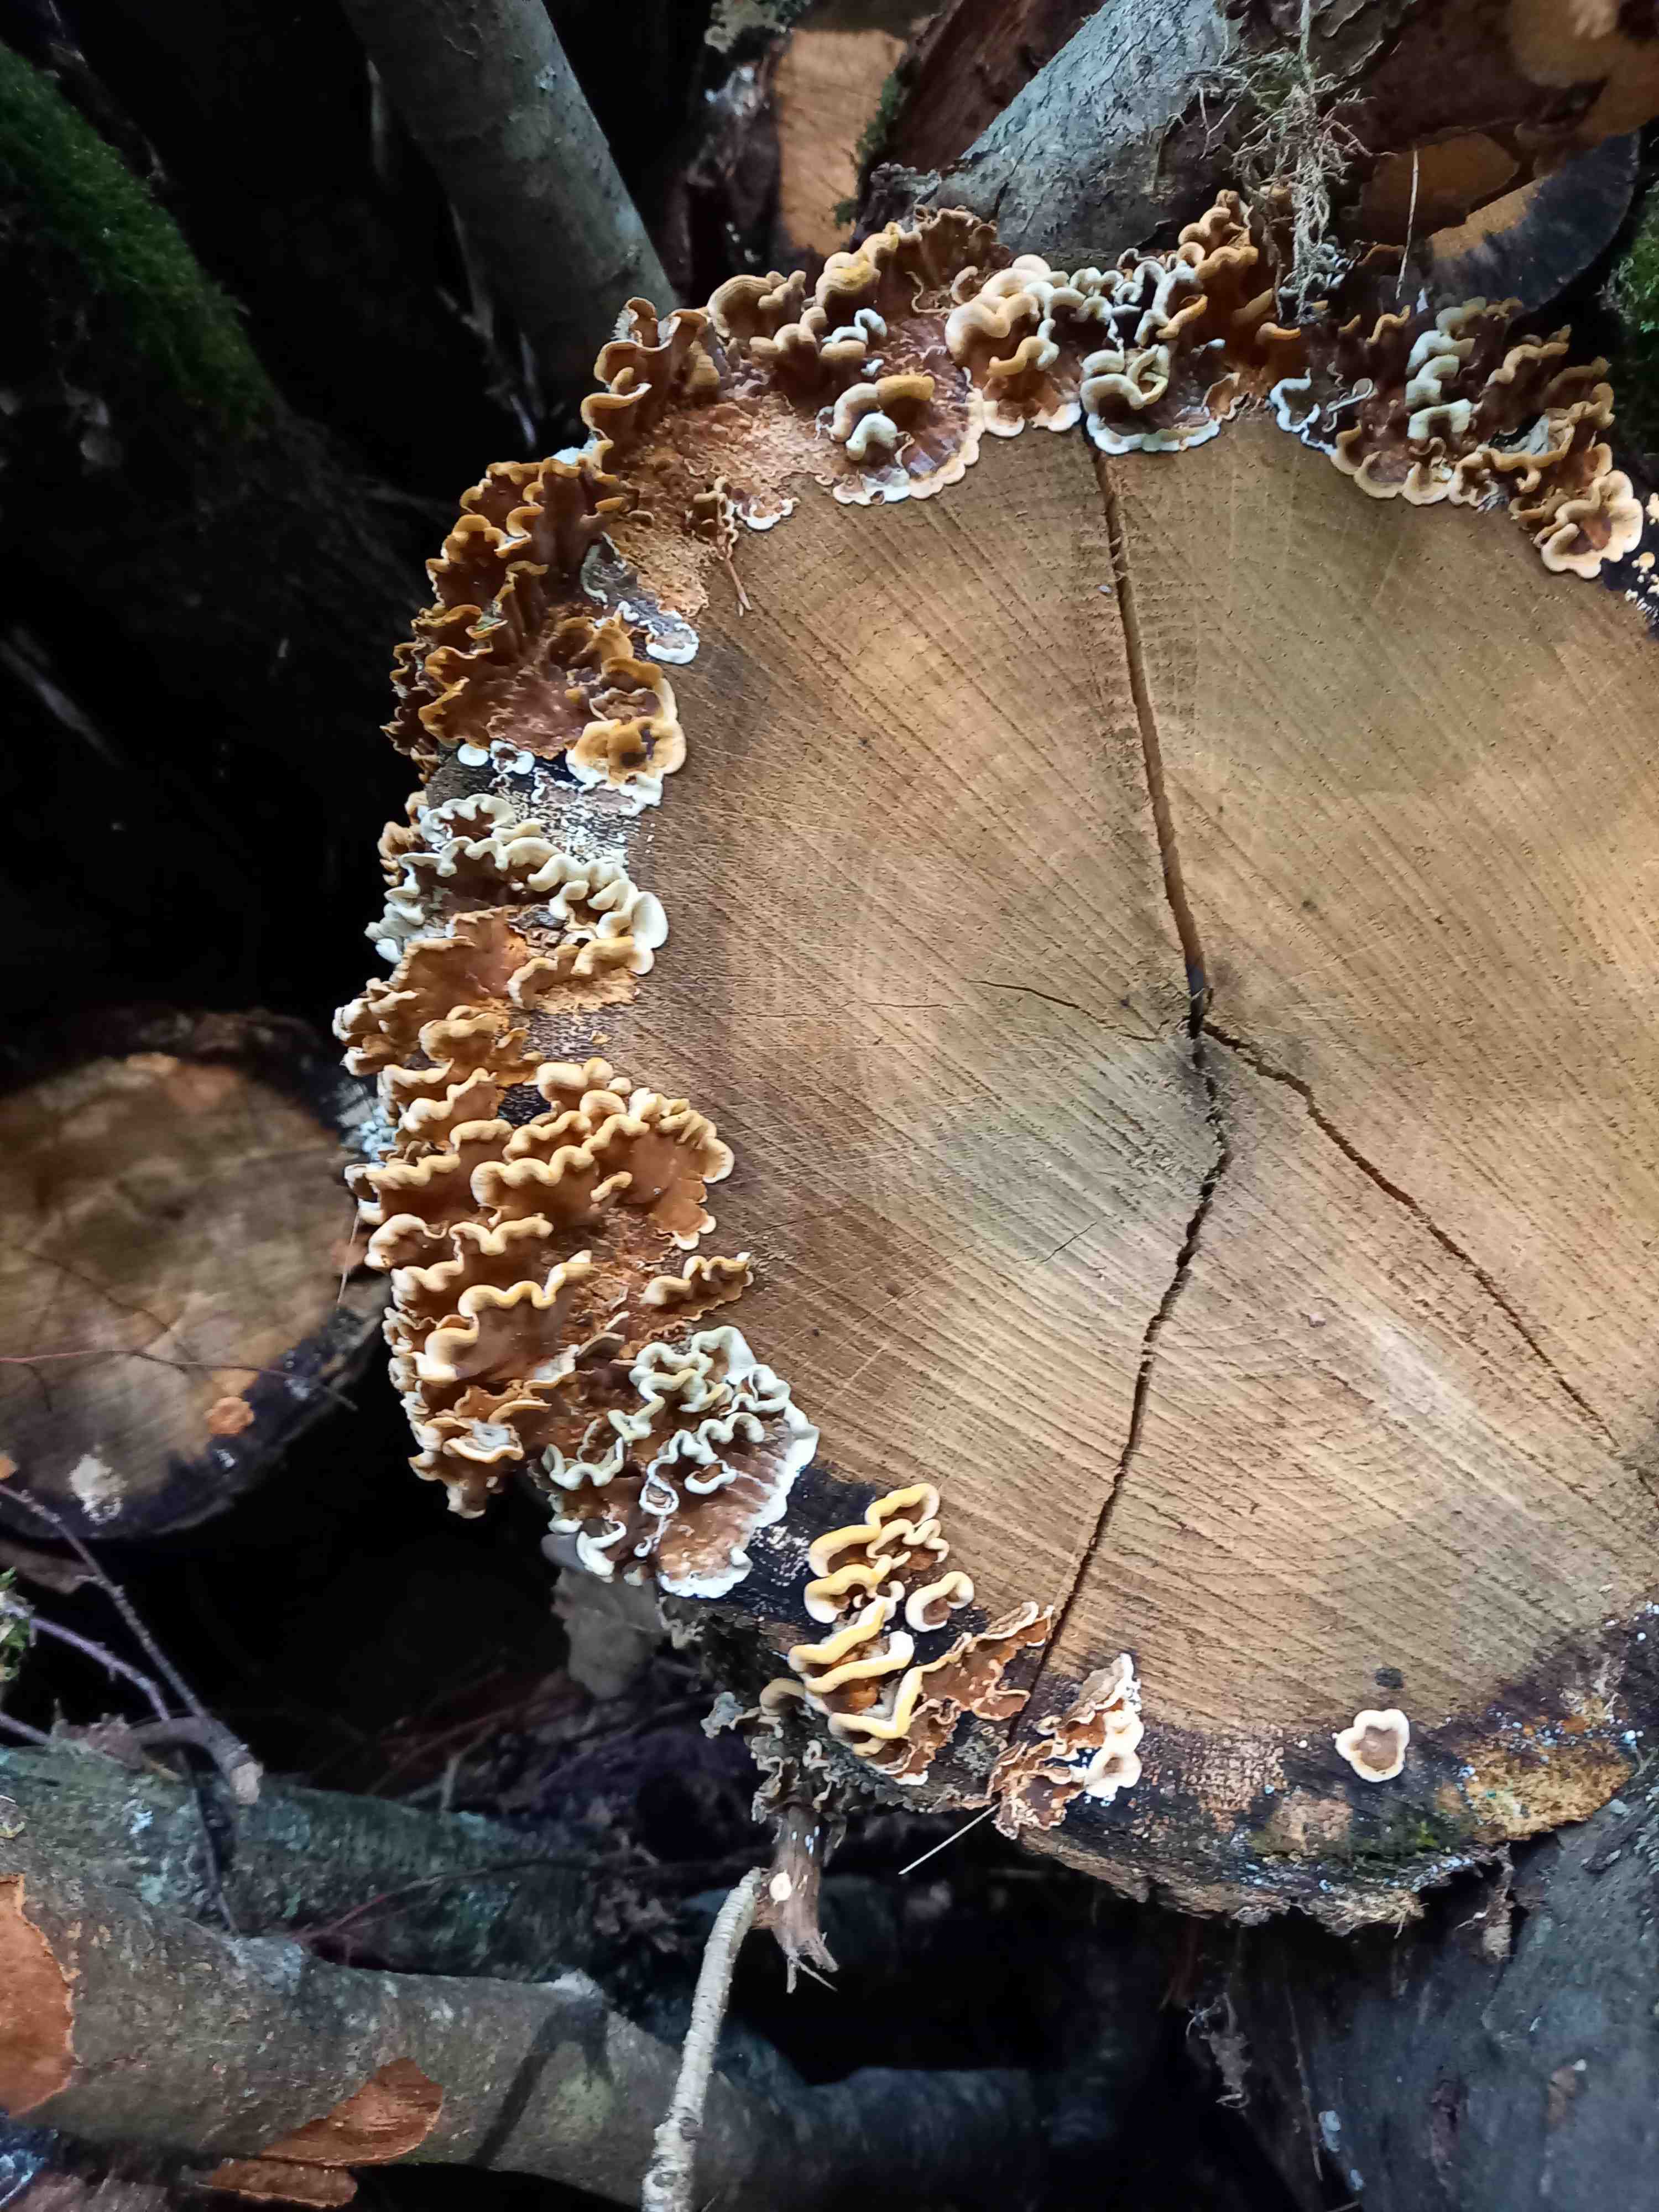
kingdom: Fungi
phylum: Basidiomycota
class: Agaricomycetes
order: Russulales
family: Stereaceae
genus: Stereum
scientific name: Stereum hirsutum
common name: håret lædersvamp
